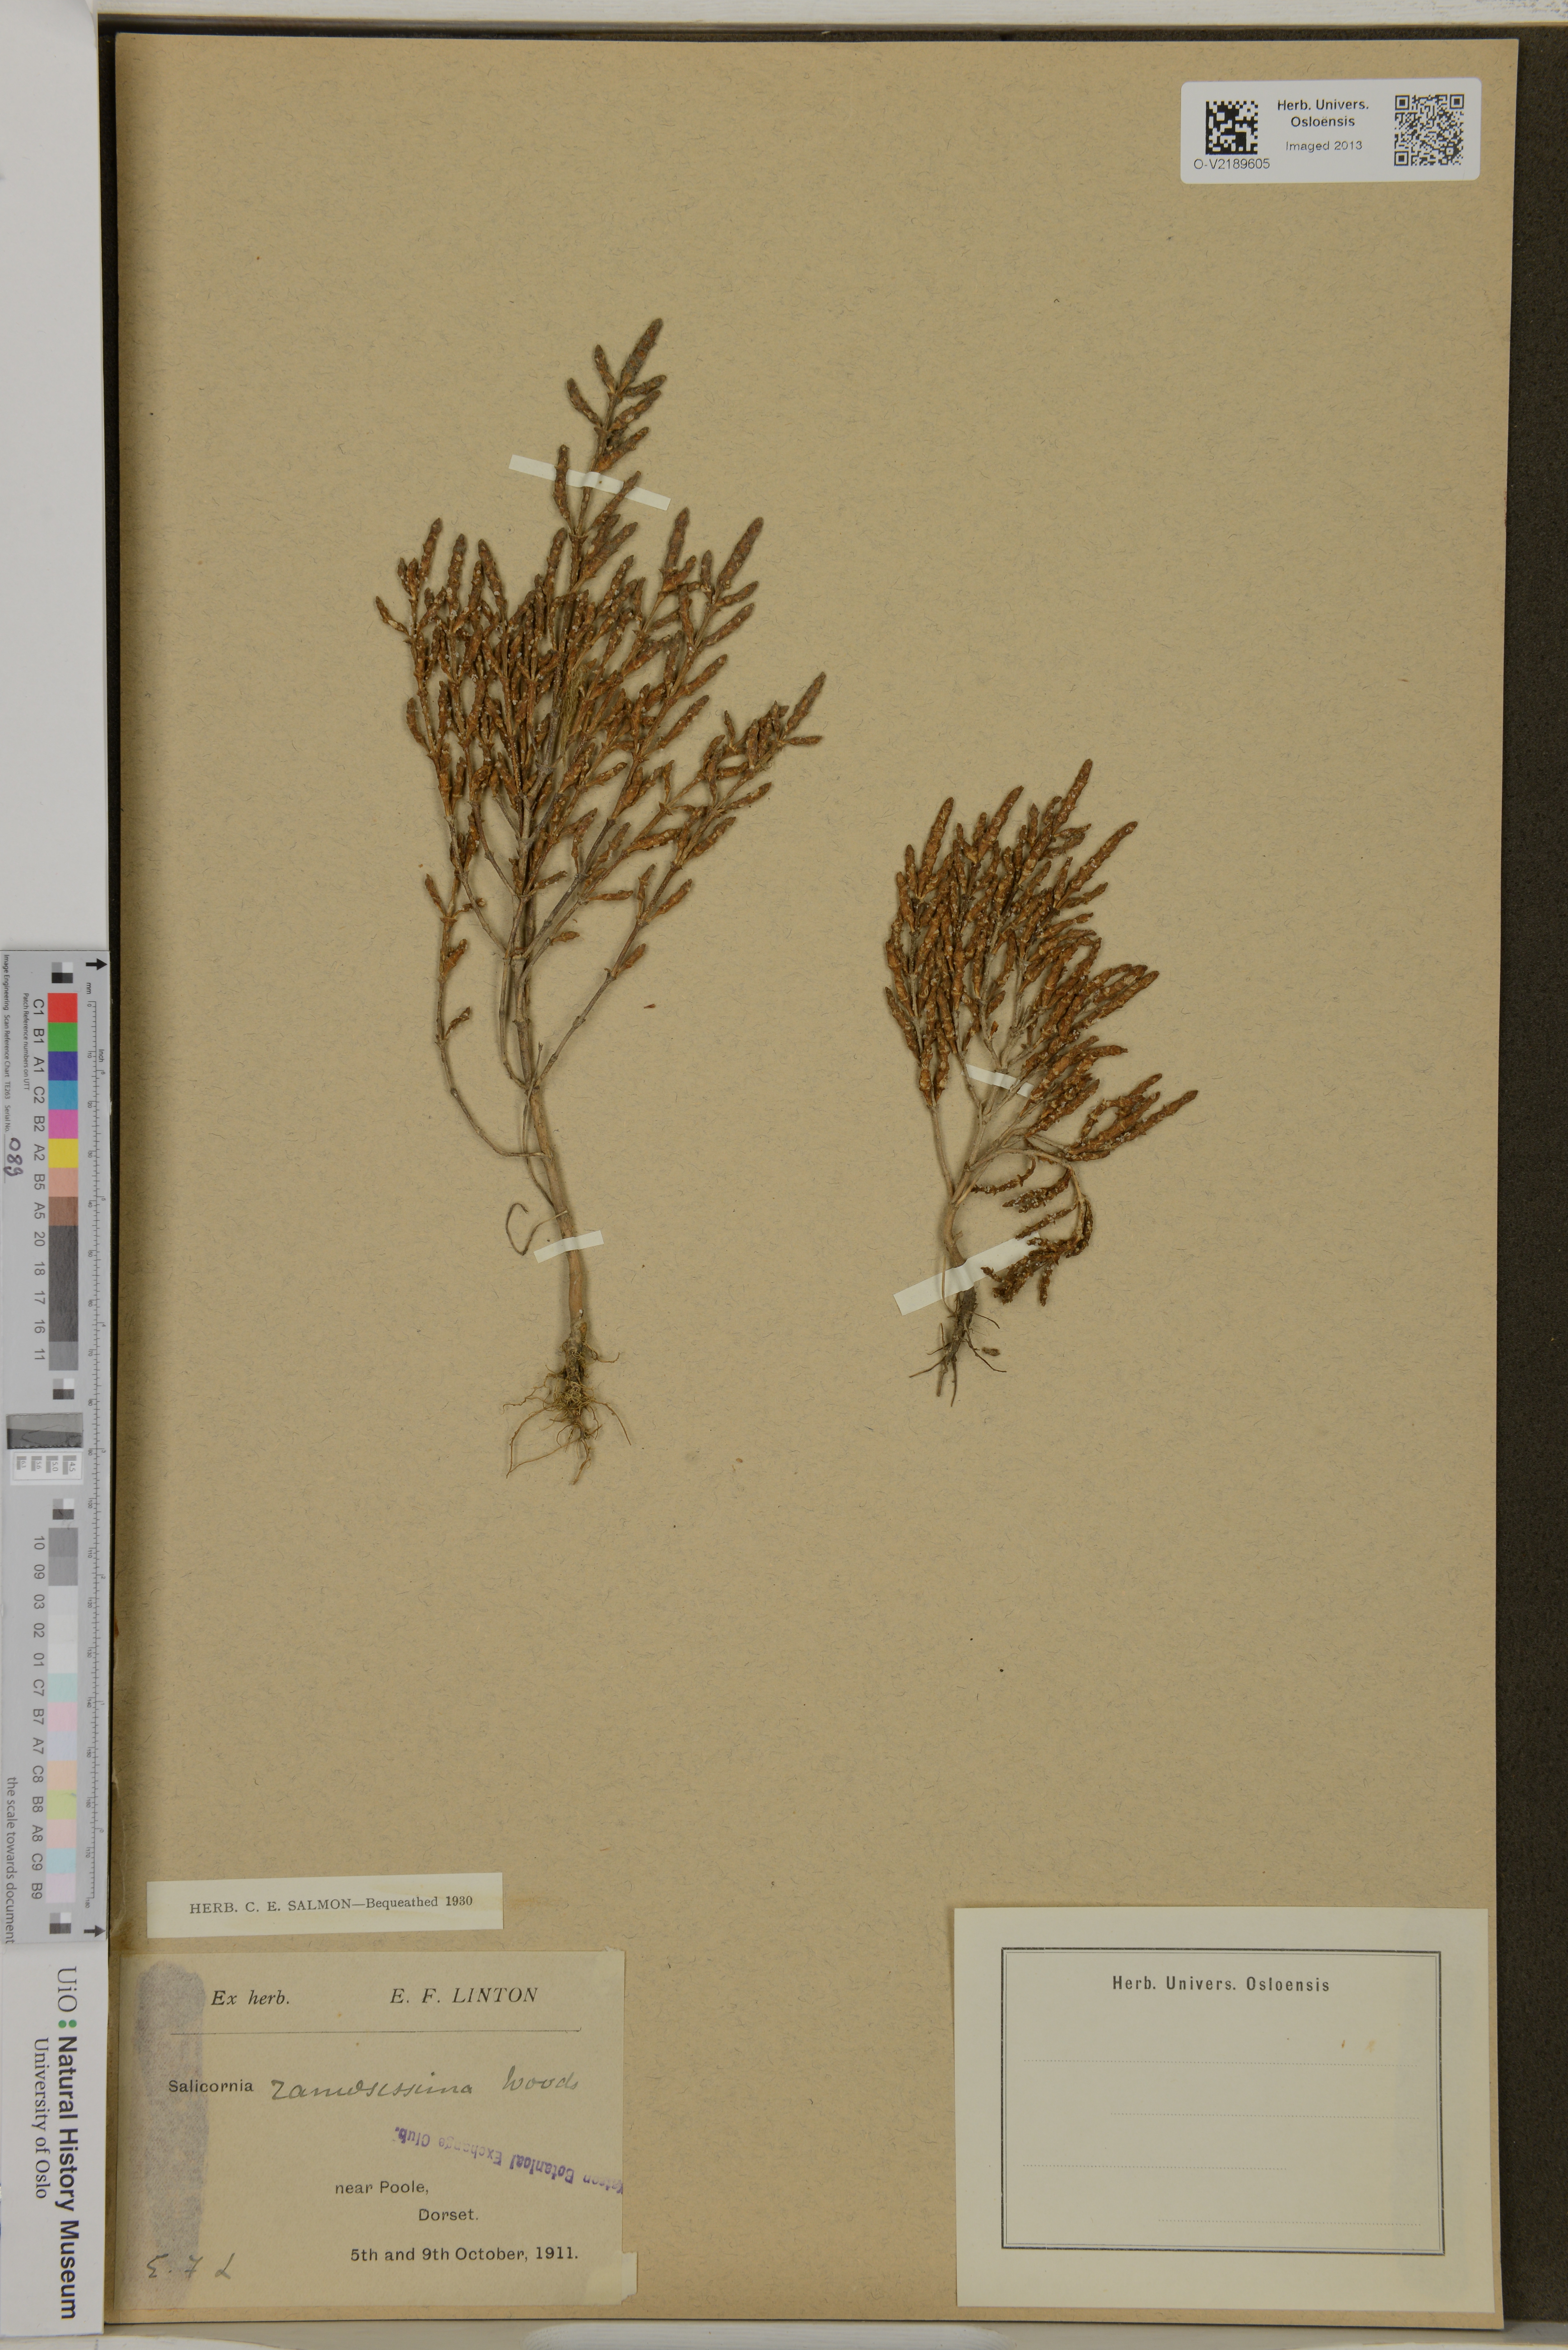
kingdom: Plantae
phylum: Tracheophyta
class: Magnoliopsida
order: Caryophyllales
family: Amaranthaceae
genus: Salicornia
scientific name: Salicornia europaea
